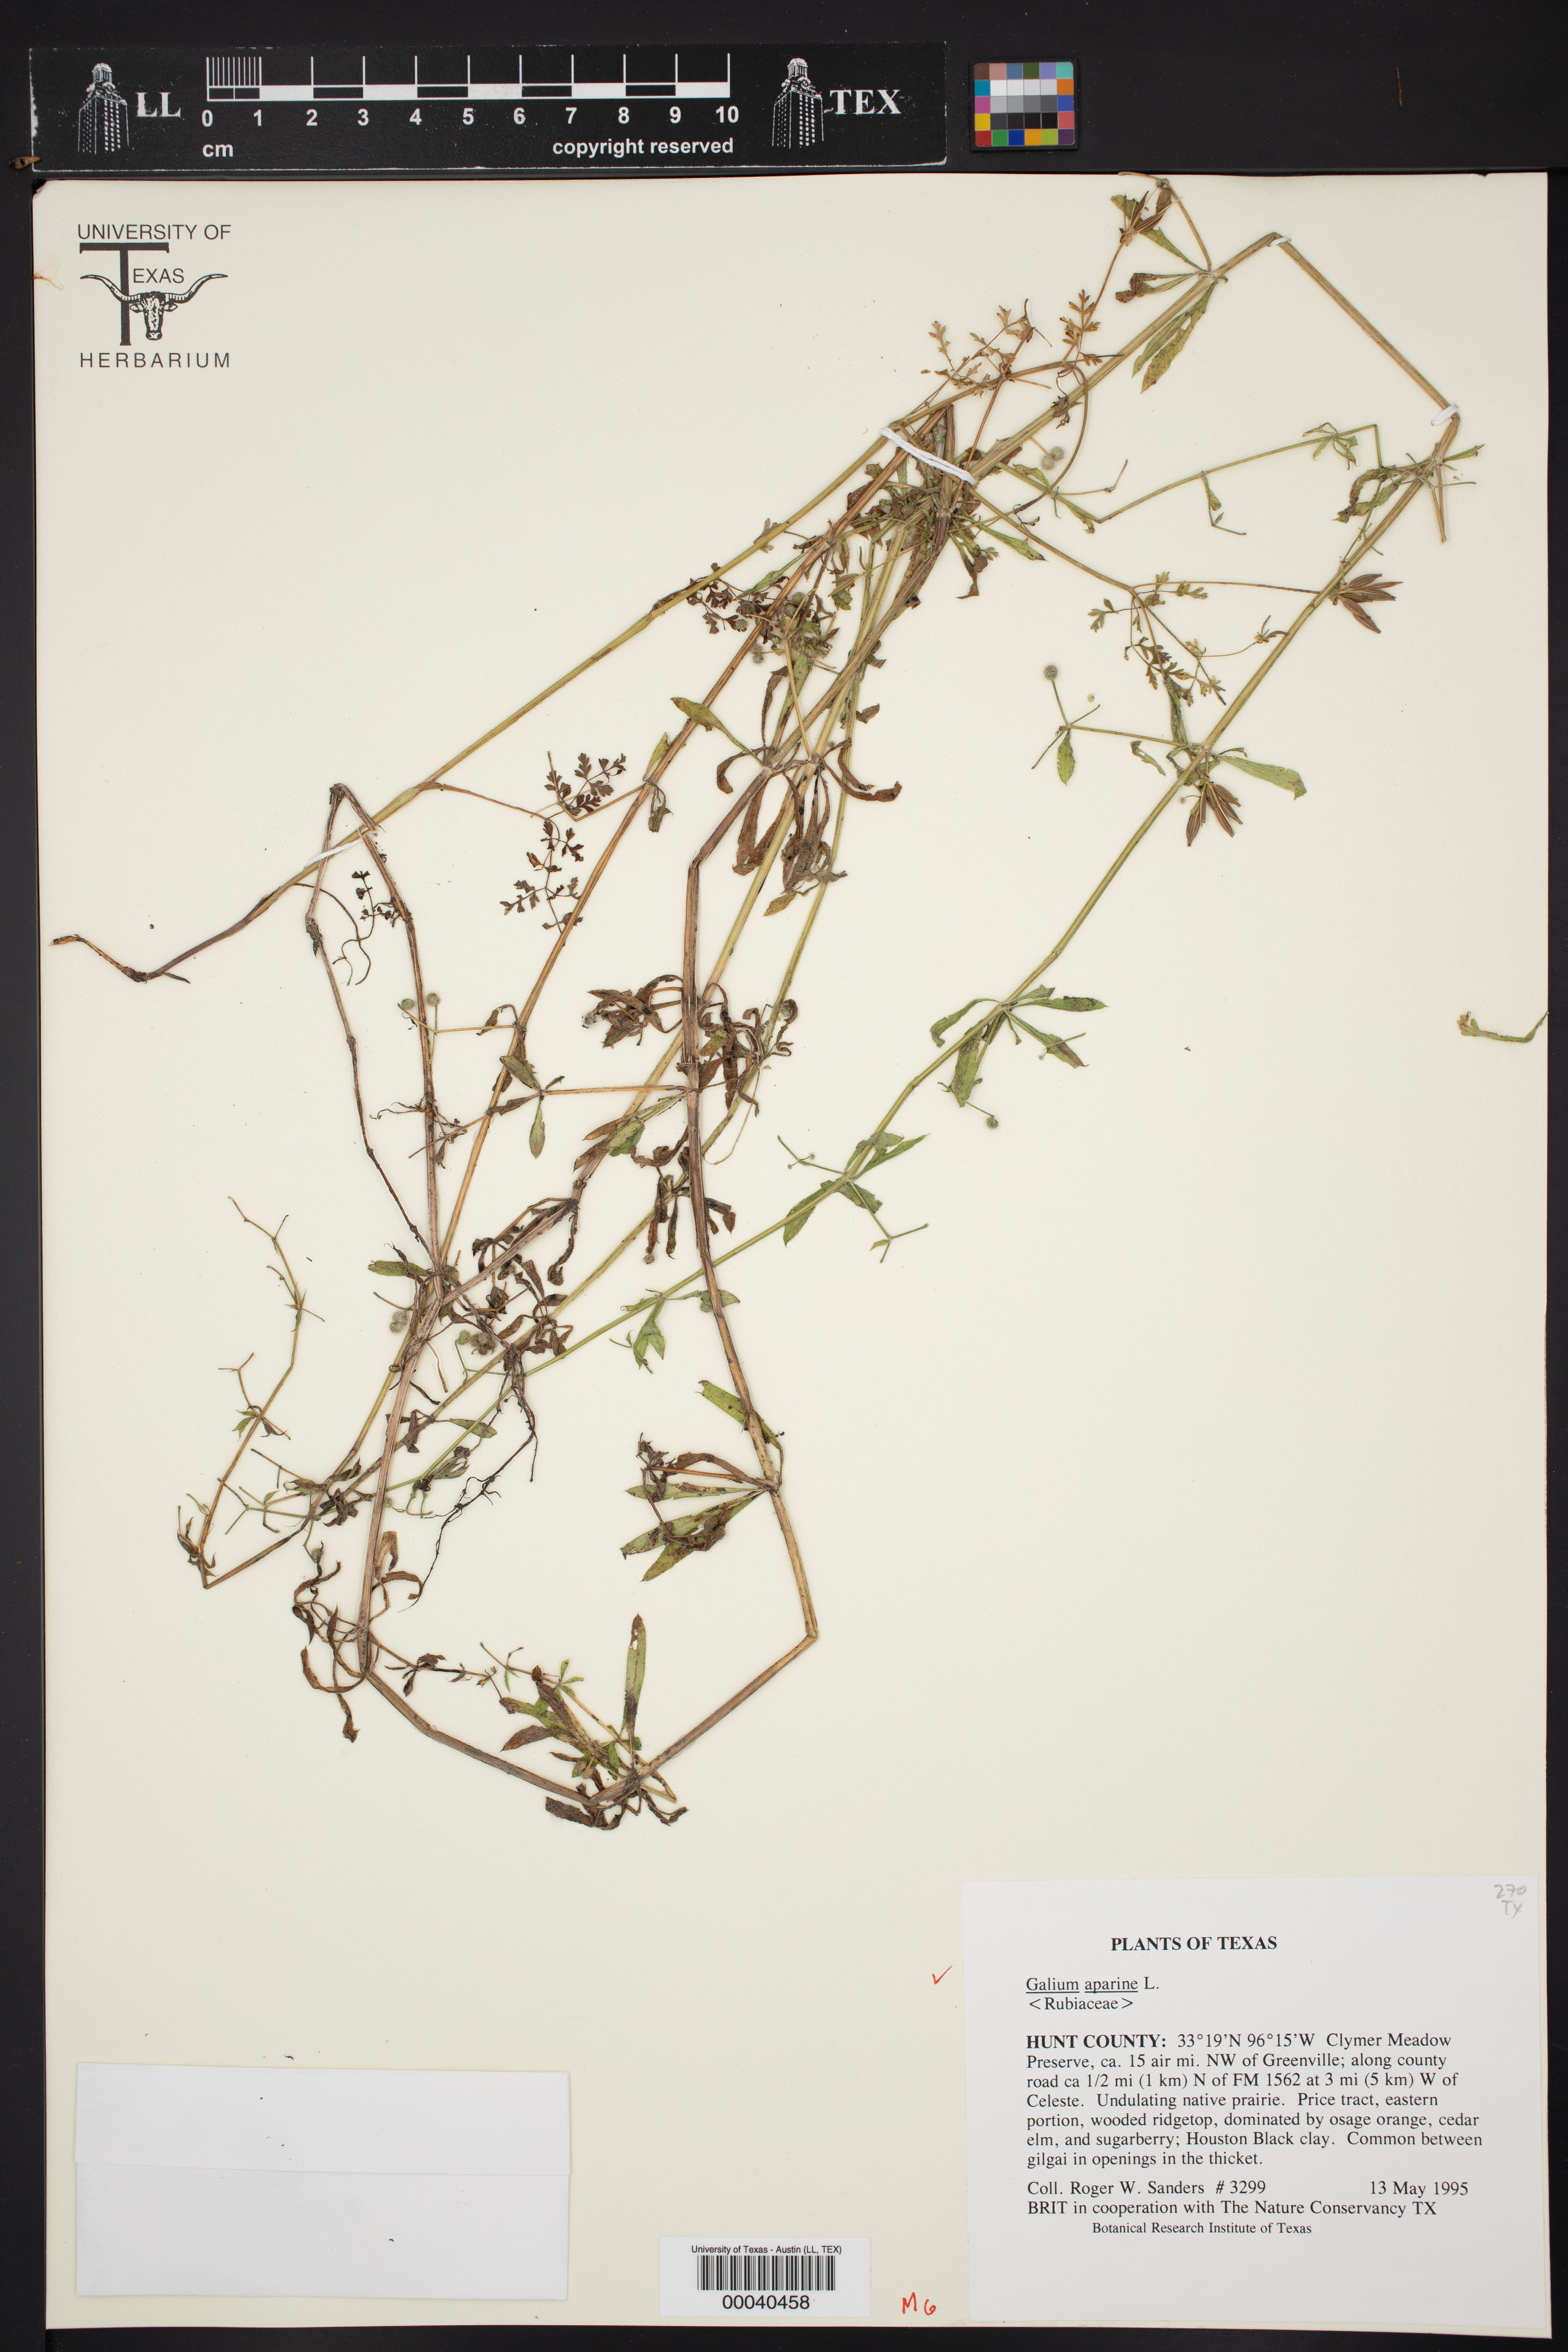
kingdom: Plantae
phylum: Tracheophyta
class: Magnoliopsida
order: Gentianales
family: Rubiaceae
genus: Galium
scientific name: Galium aparine
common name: Cleavers
